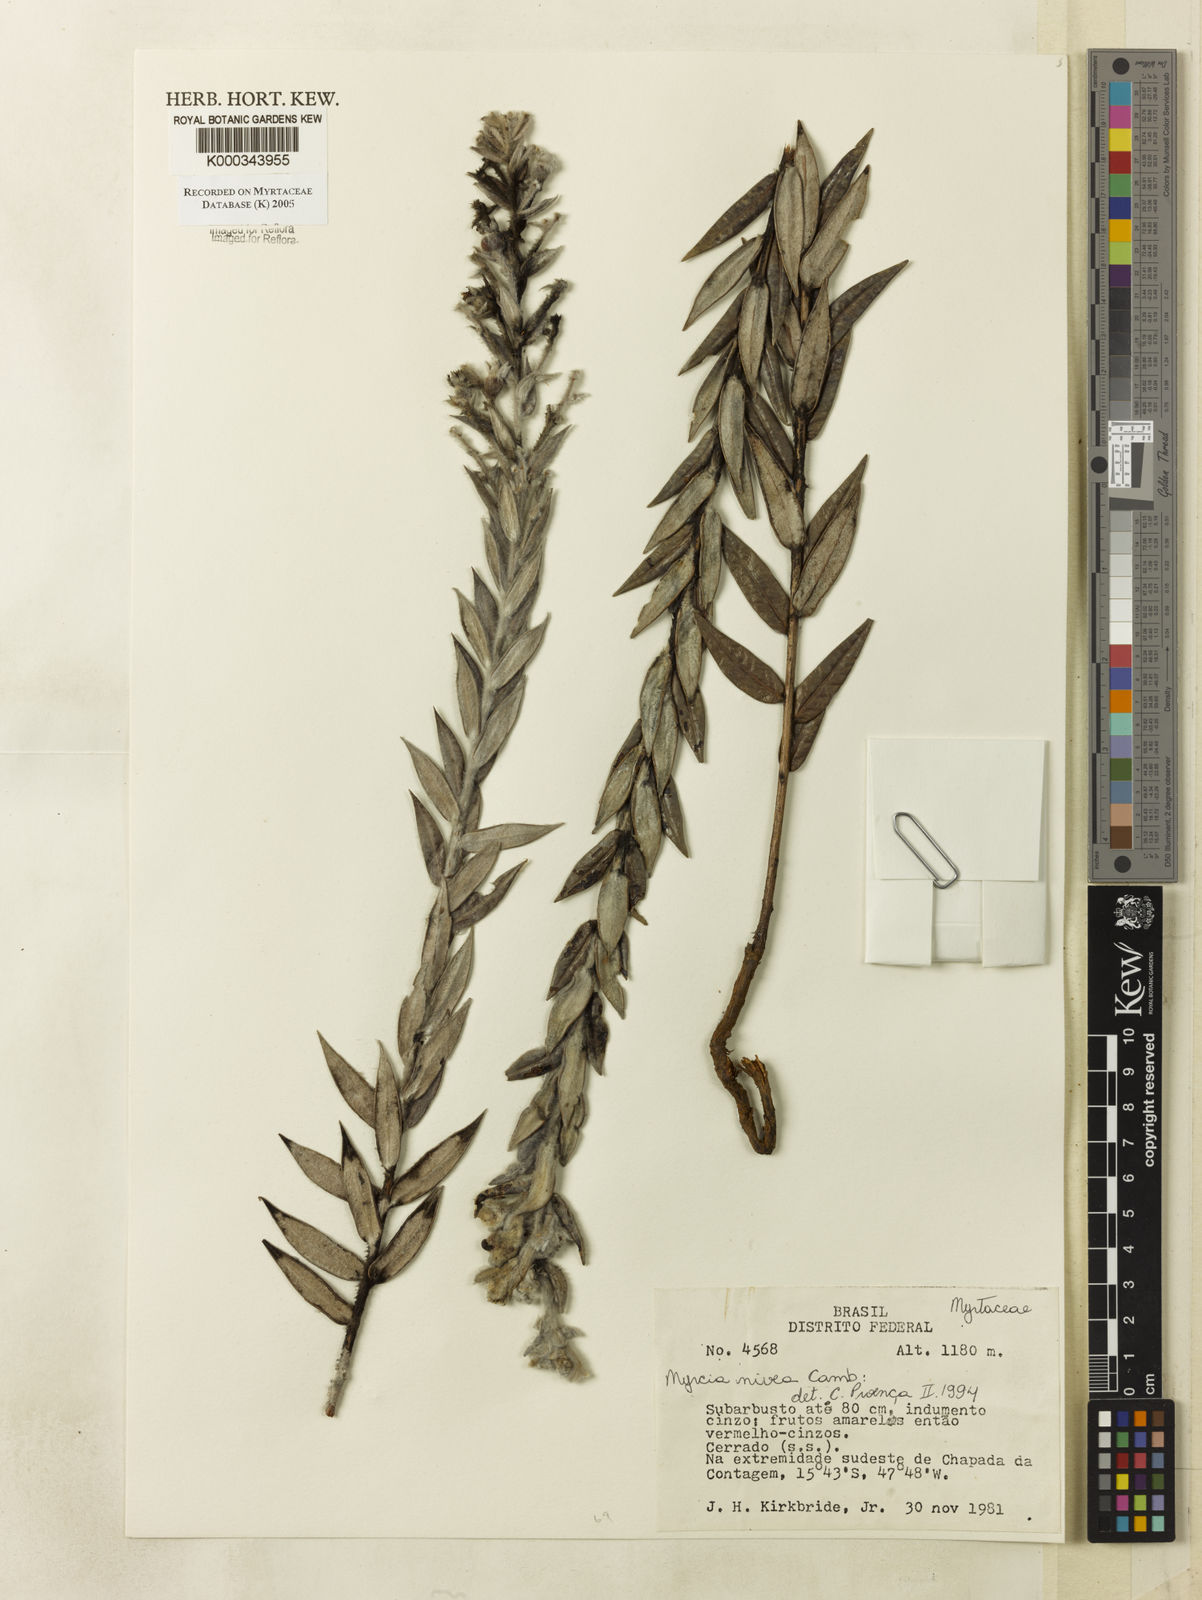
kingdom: Plantae
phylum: Tracheophyta
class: Magnoliopsida
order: Myrtales
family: Myrtaceae
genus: Myrcia
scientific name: Myrcia nivea
